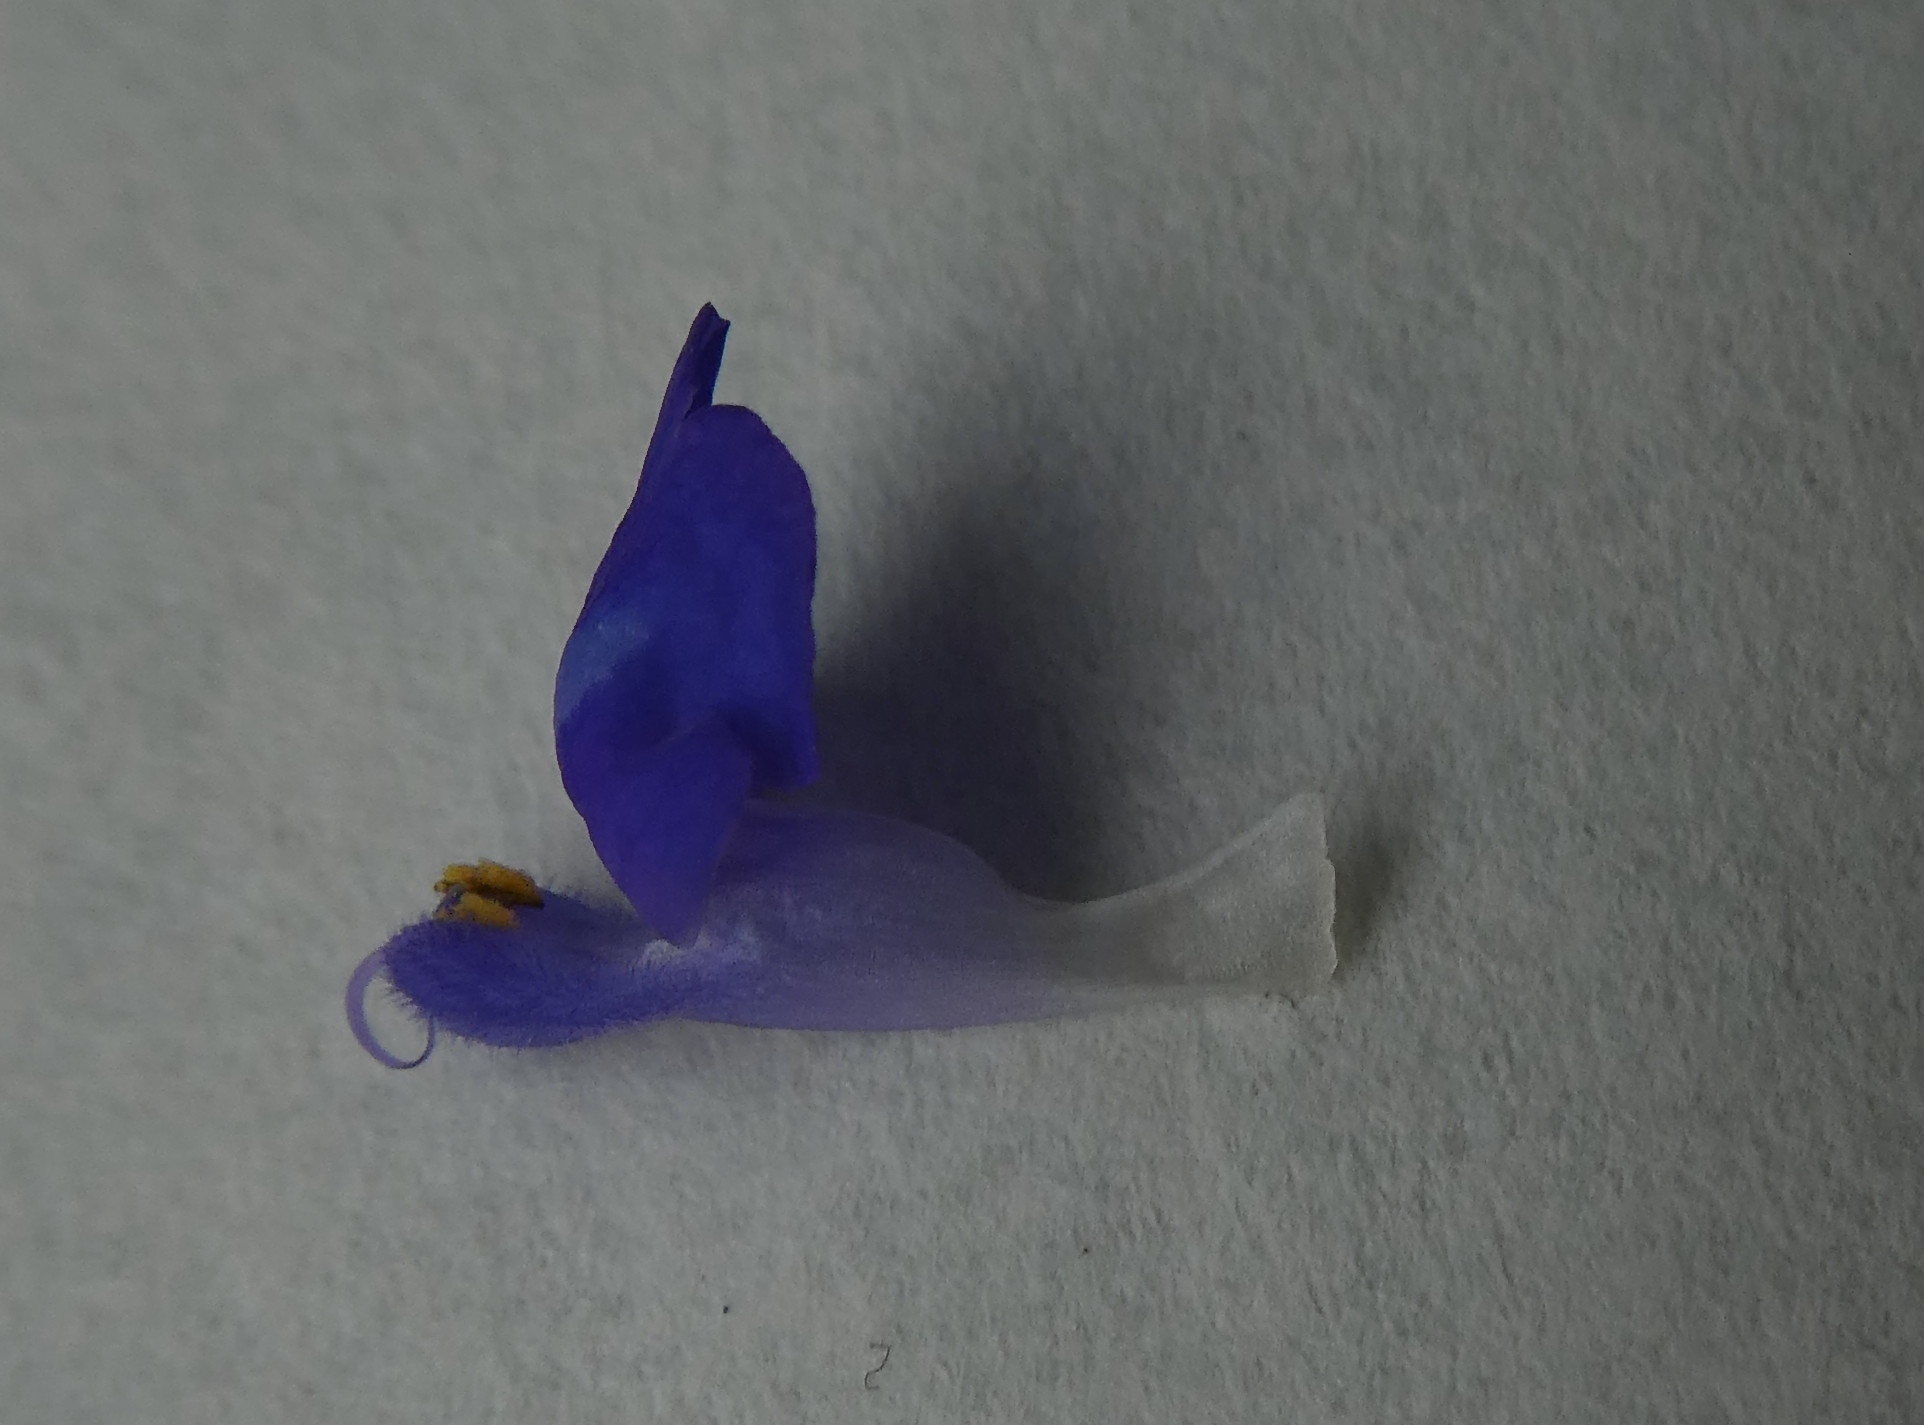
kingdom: Plantae
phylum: Tracheophyta
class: Magnoliopsida
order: Lamiales
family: Lamiaceae
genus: Salvia
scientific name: Salvia hispanica
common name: Chia
